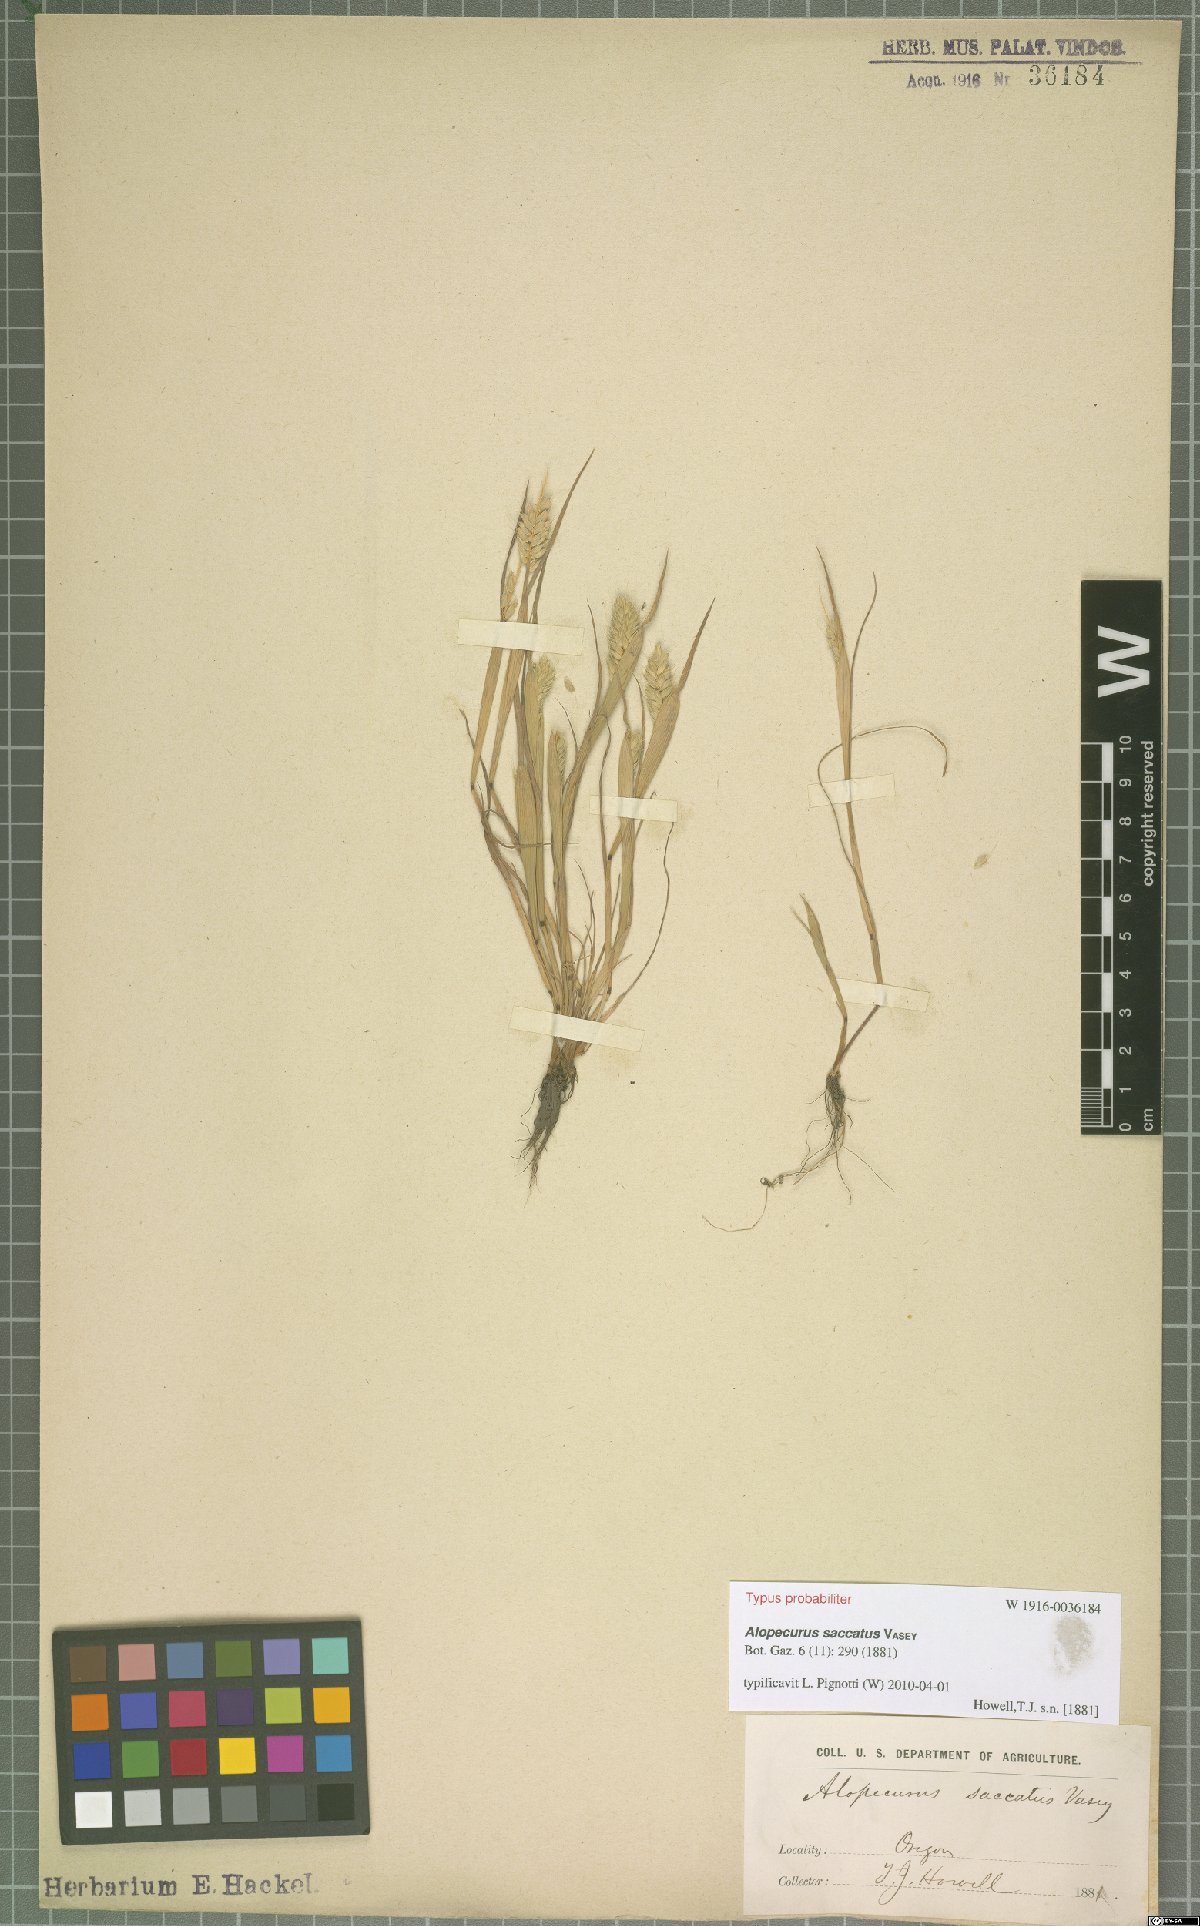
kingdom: Plantae
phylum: Tracheophyta
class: Liliopsida
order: Poales
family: Poaceae
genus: Alopecurus
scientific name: Alopecurus saccatus
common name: Pacific foxtail
